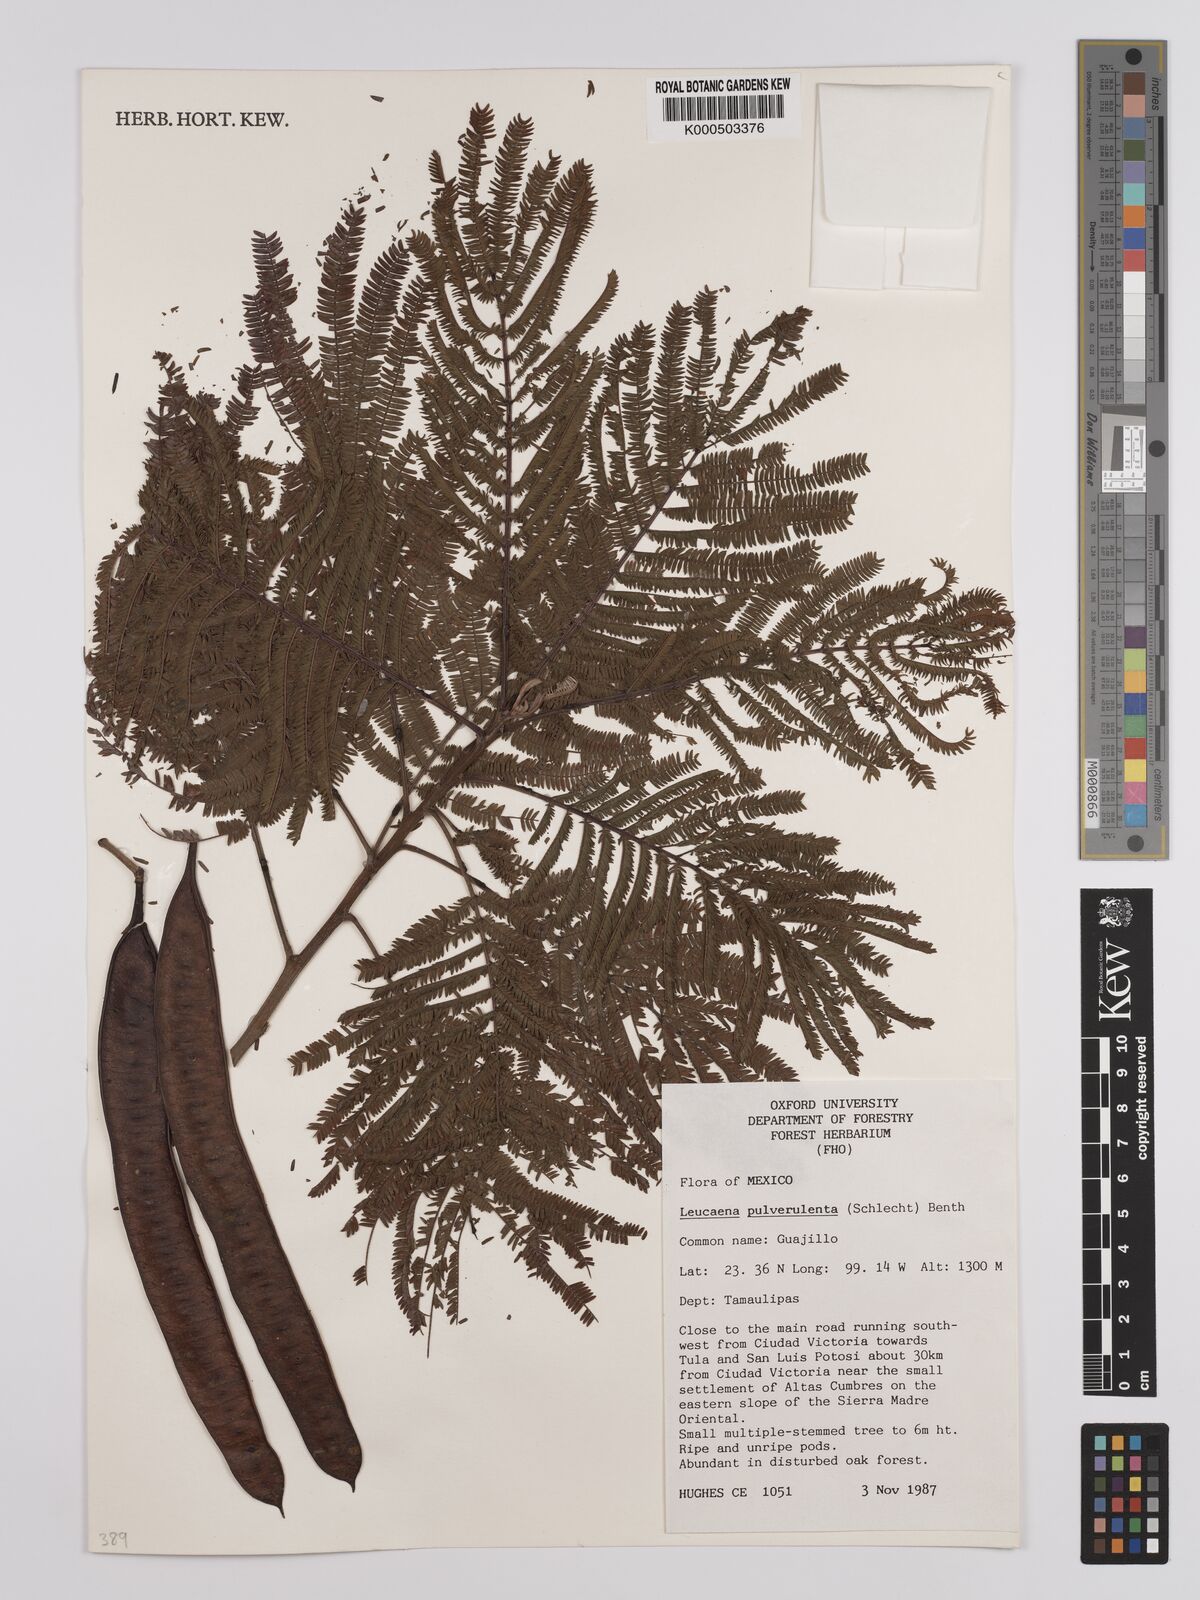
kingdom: Plantae
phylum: Tracheophyta
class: Magnoliopsida
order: Fabales
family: Fabaceae
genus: Leucaena
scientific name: Leucaena pulverulenta
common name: Great leadtree
